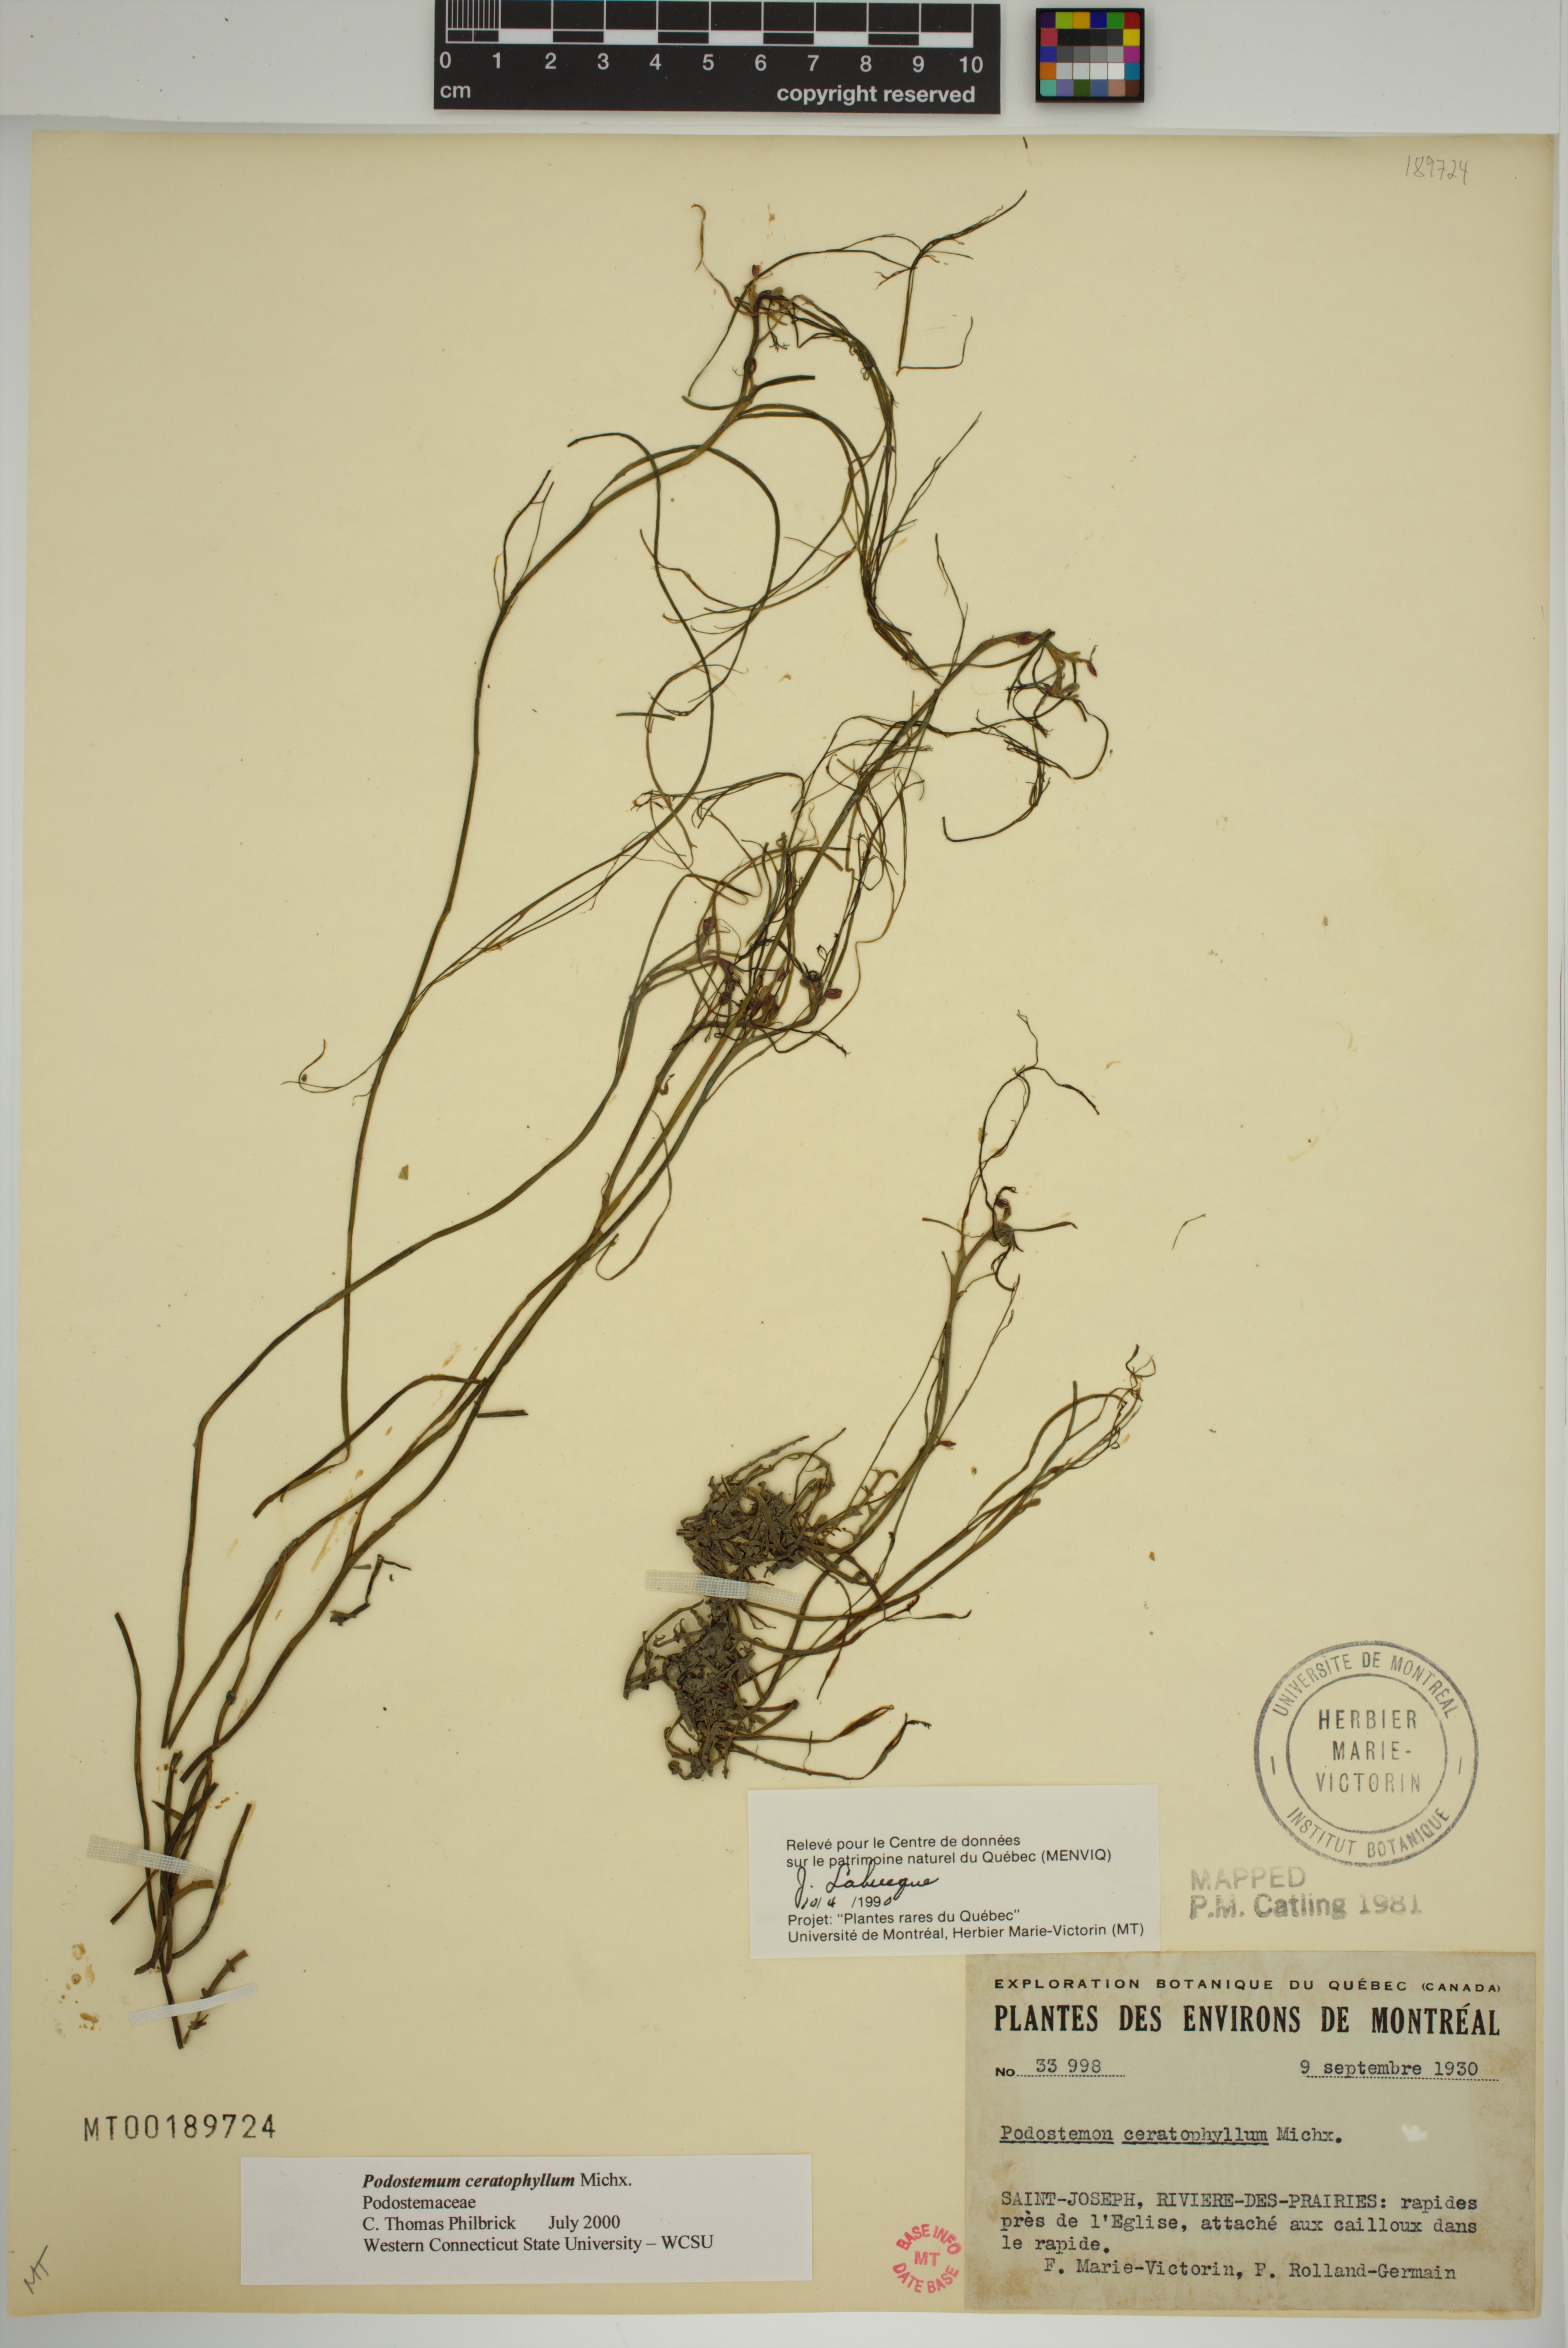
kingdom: Plantae
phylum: Tracheophyta
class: Magnoliopsida
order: Malpighiales
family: Podostemaceae
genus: Podostemum
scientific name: Podostemum ceratophyllum
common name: Horn-leaved riverweed
